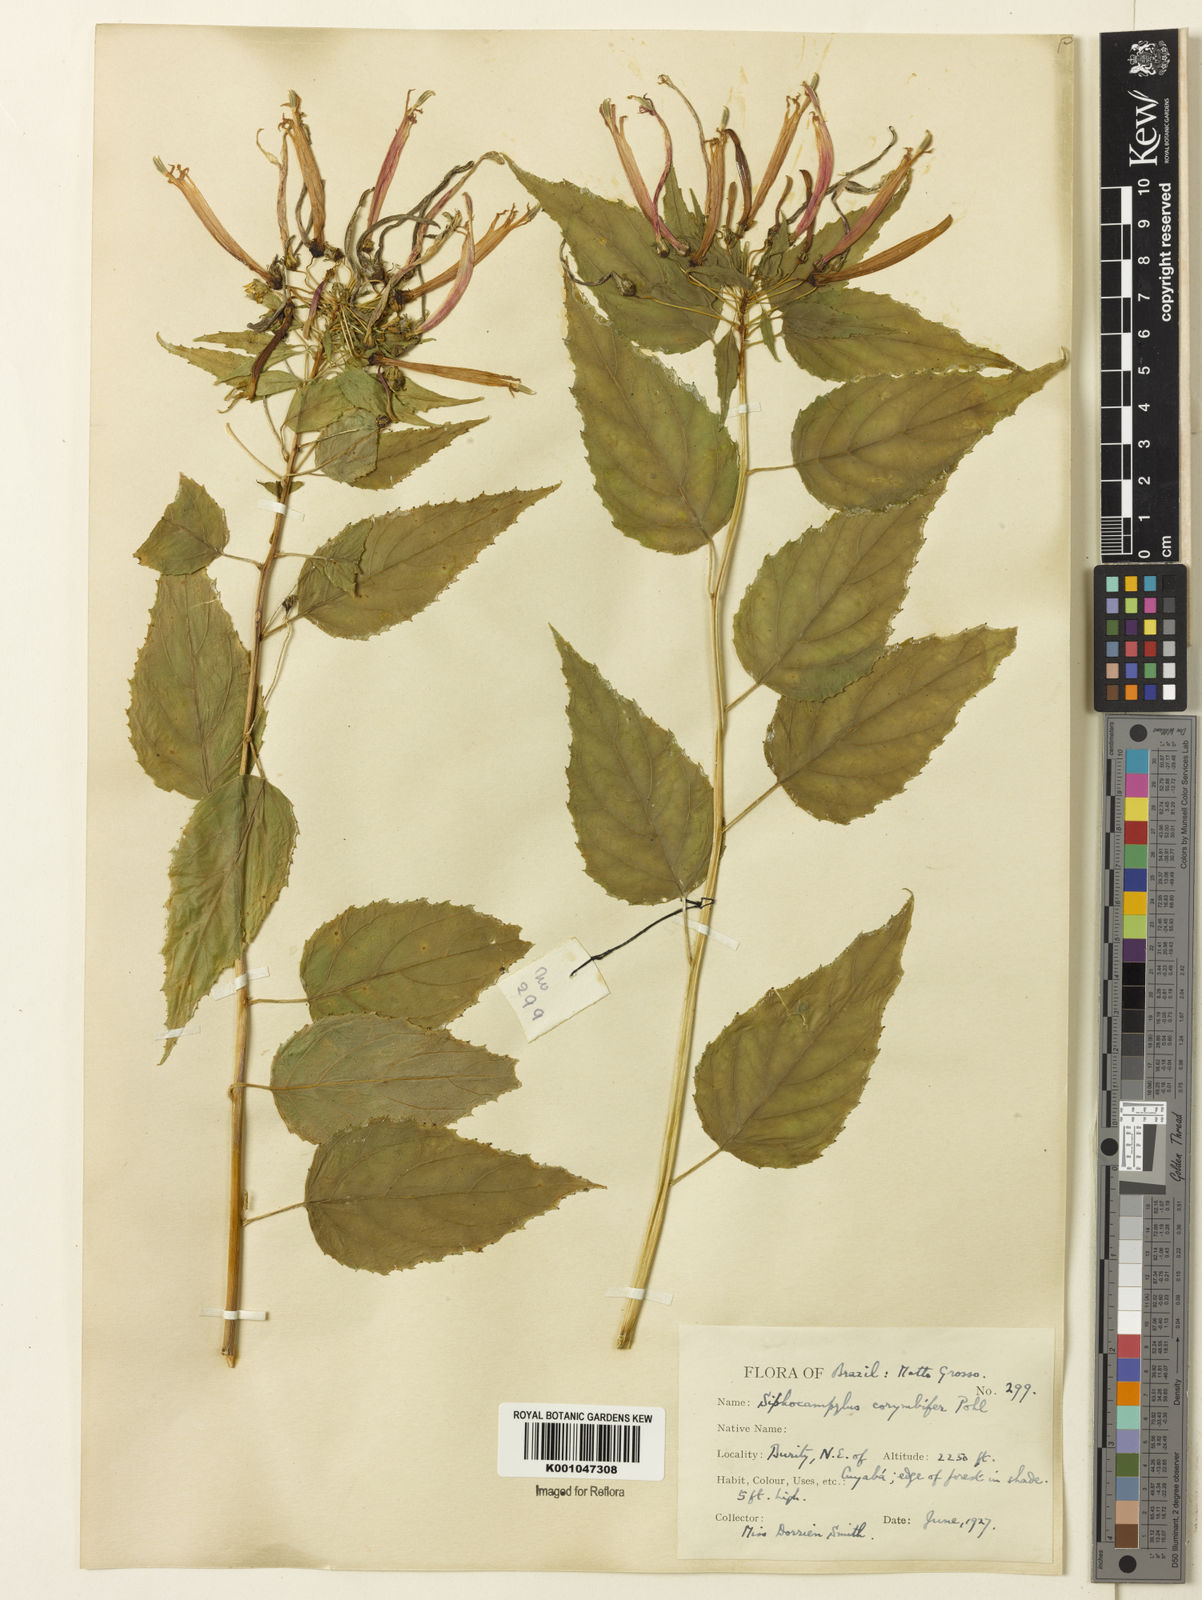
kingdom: Plantae
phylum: Tracheophyta
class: Magnoliopsida
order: Asterales
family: Campanulaceae
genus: Siphocampylus
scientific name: Siphocampylus corymbifer
